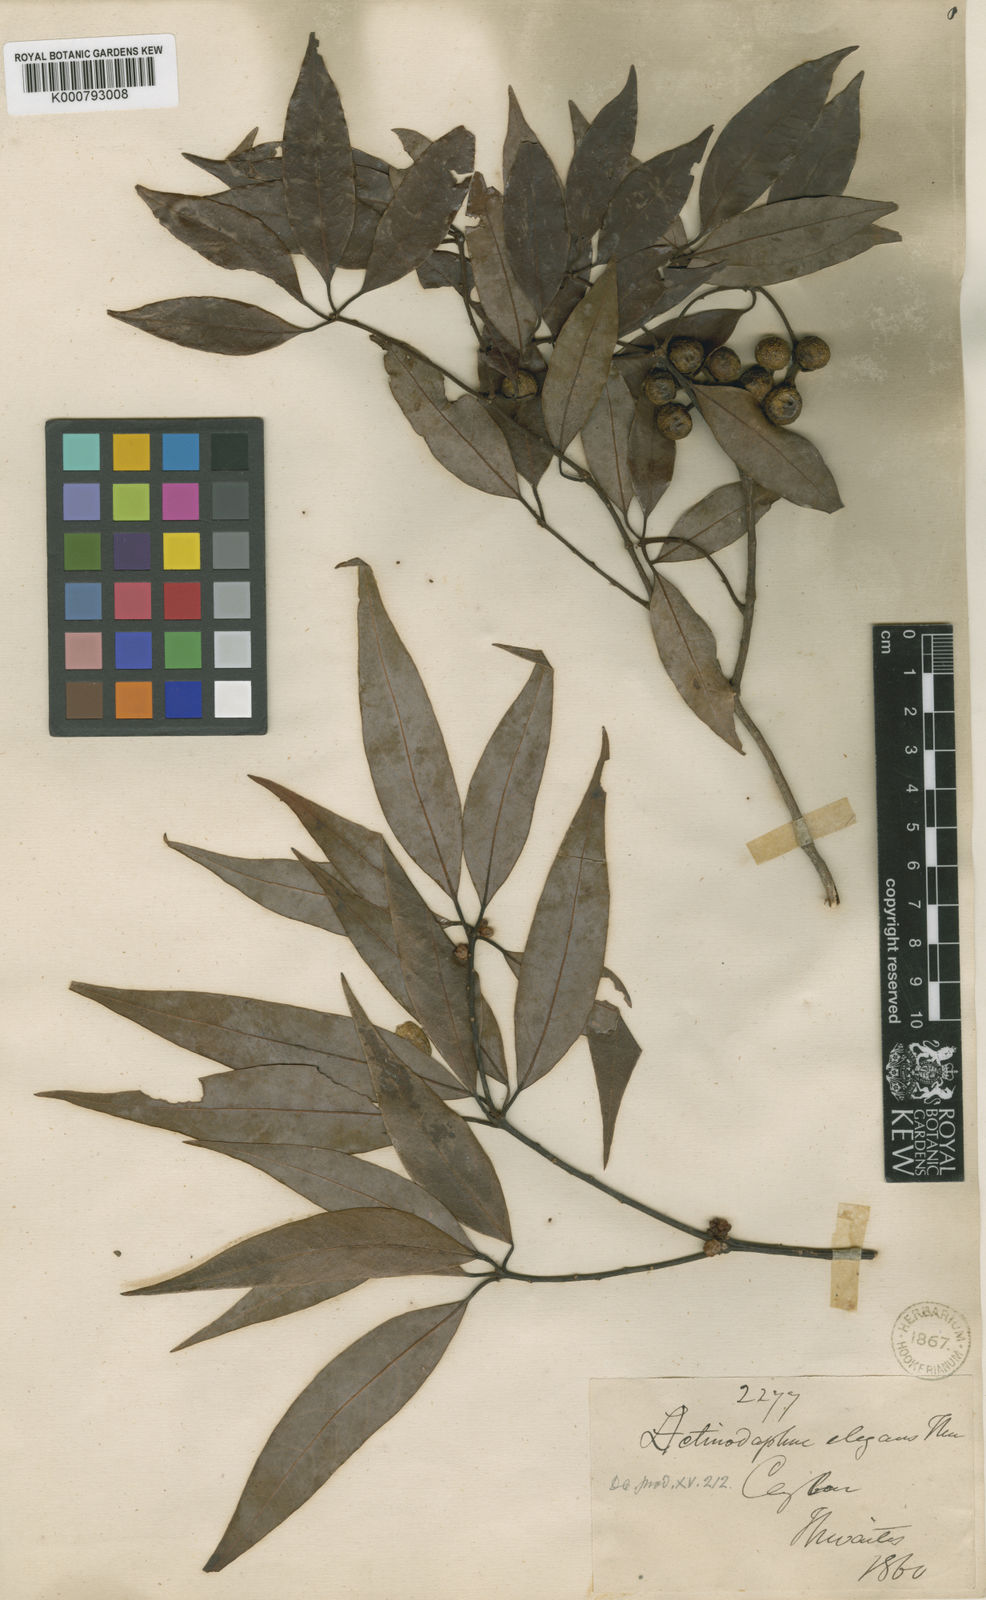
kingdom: Plantae
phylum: Tracheophyta
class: Magnoliopsida
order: Laurales
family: Lauraceae
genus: Actinodaphne
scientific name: Actinodaphne elegans
